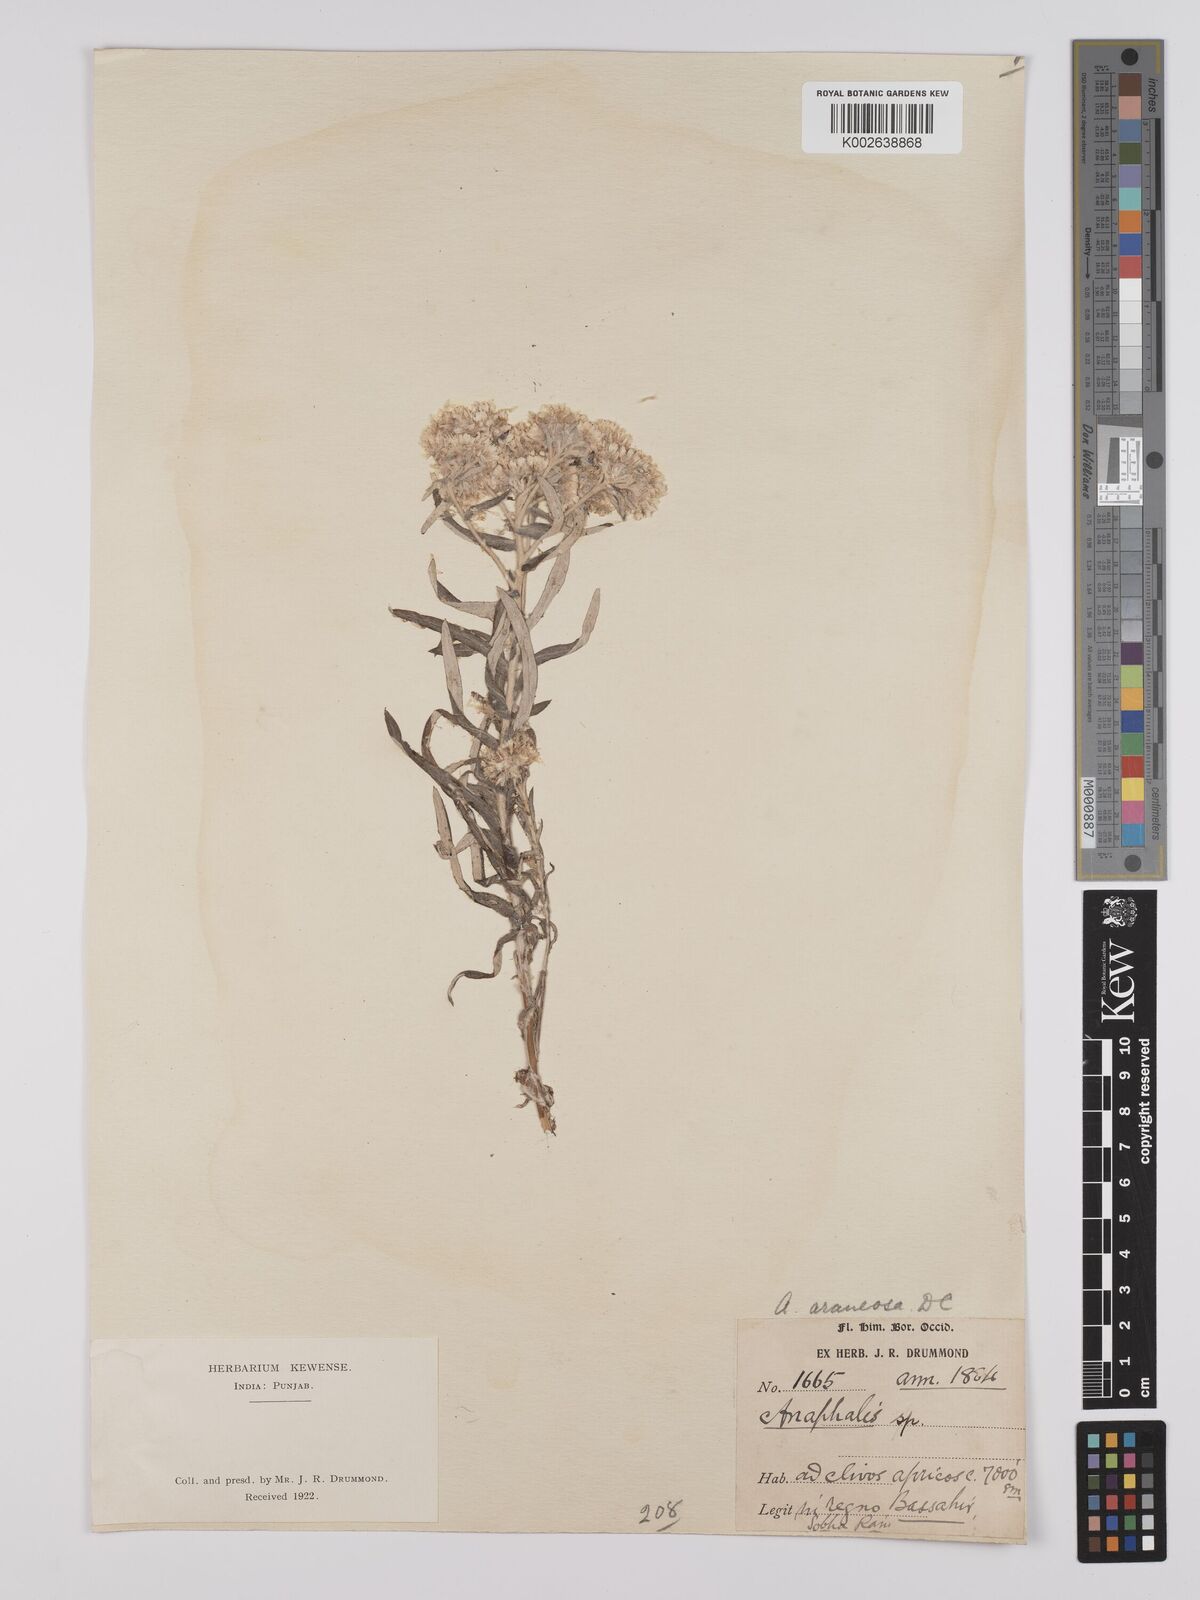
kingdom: Plantae
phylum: Tracheophyta
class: Magnoliopsida
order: Asterales
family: Asteraceae
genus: Anaphalis
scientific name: Anaphalis busua
